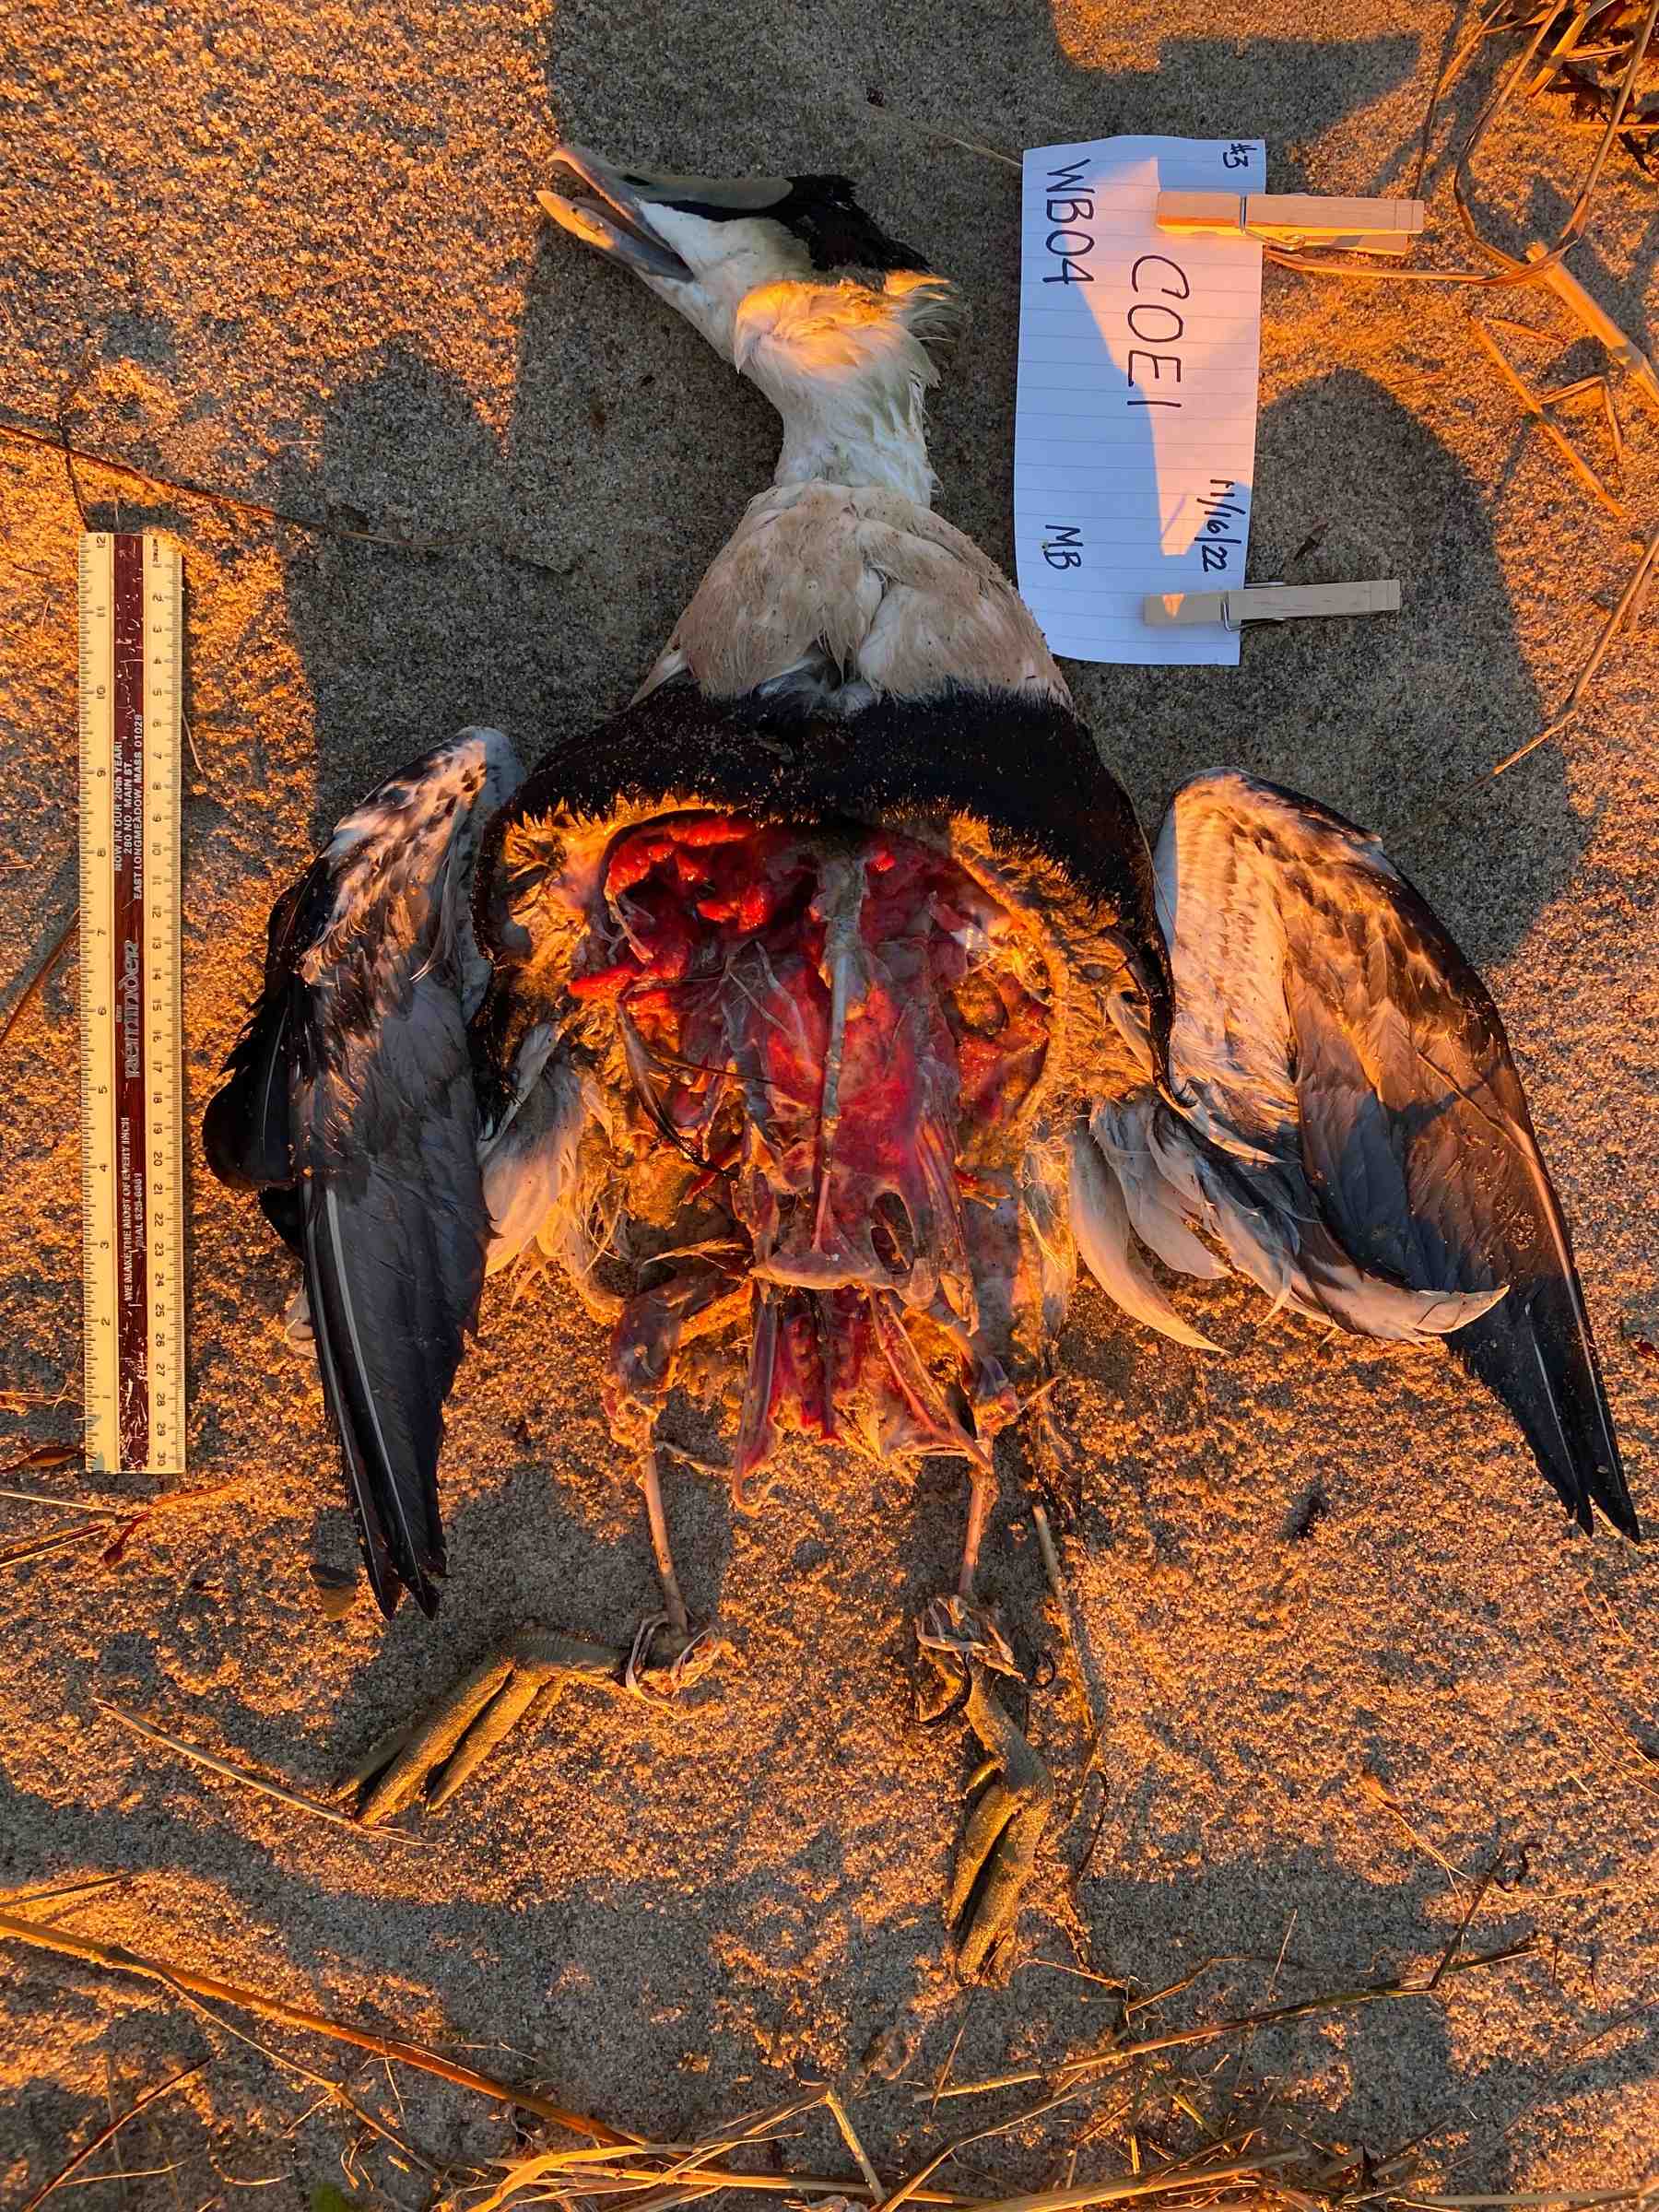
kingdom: Animalia
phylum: Chordata
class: Aves
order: Anseriformes
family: Anatidae
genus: Somateria
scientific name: Somateria mollissima
